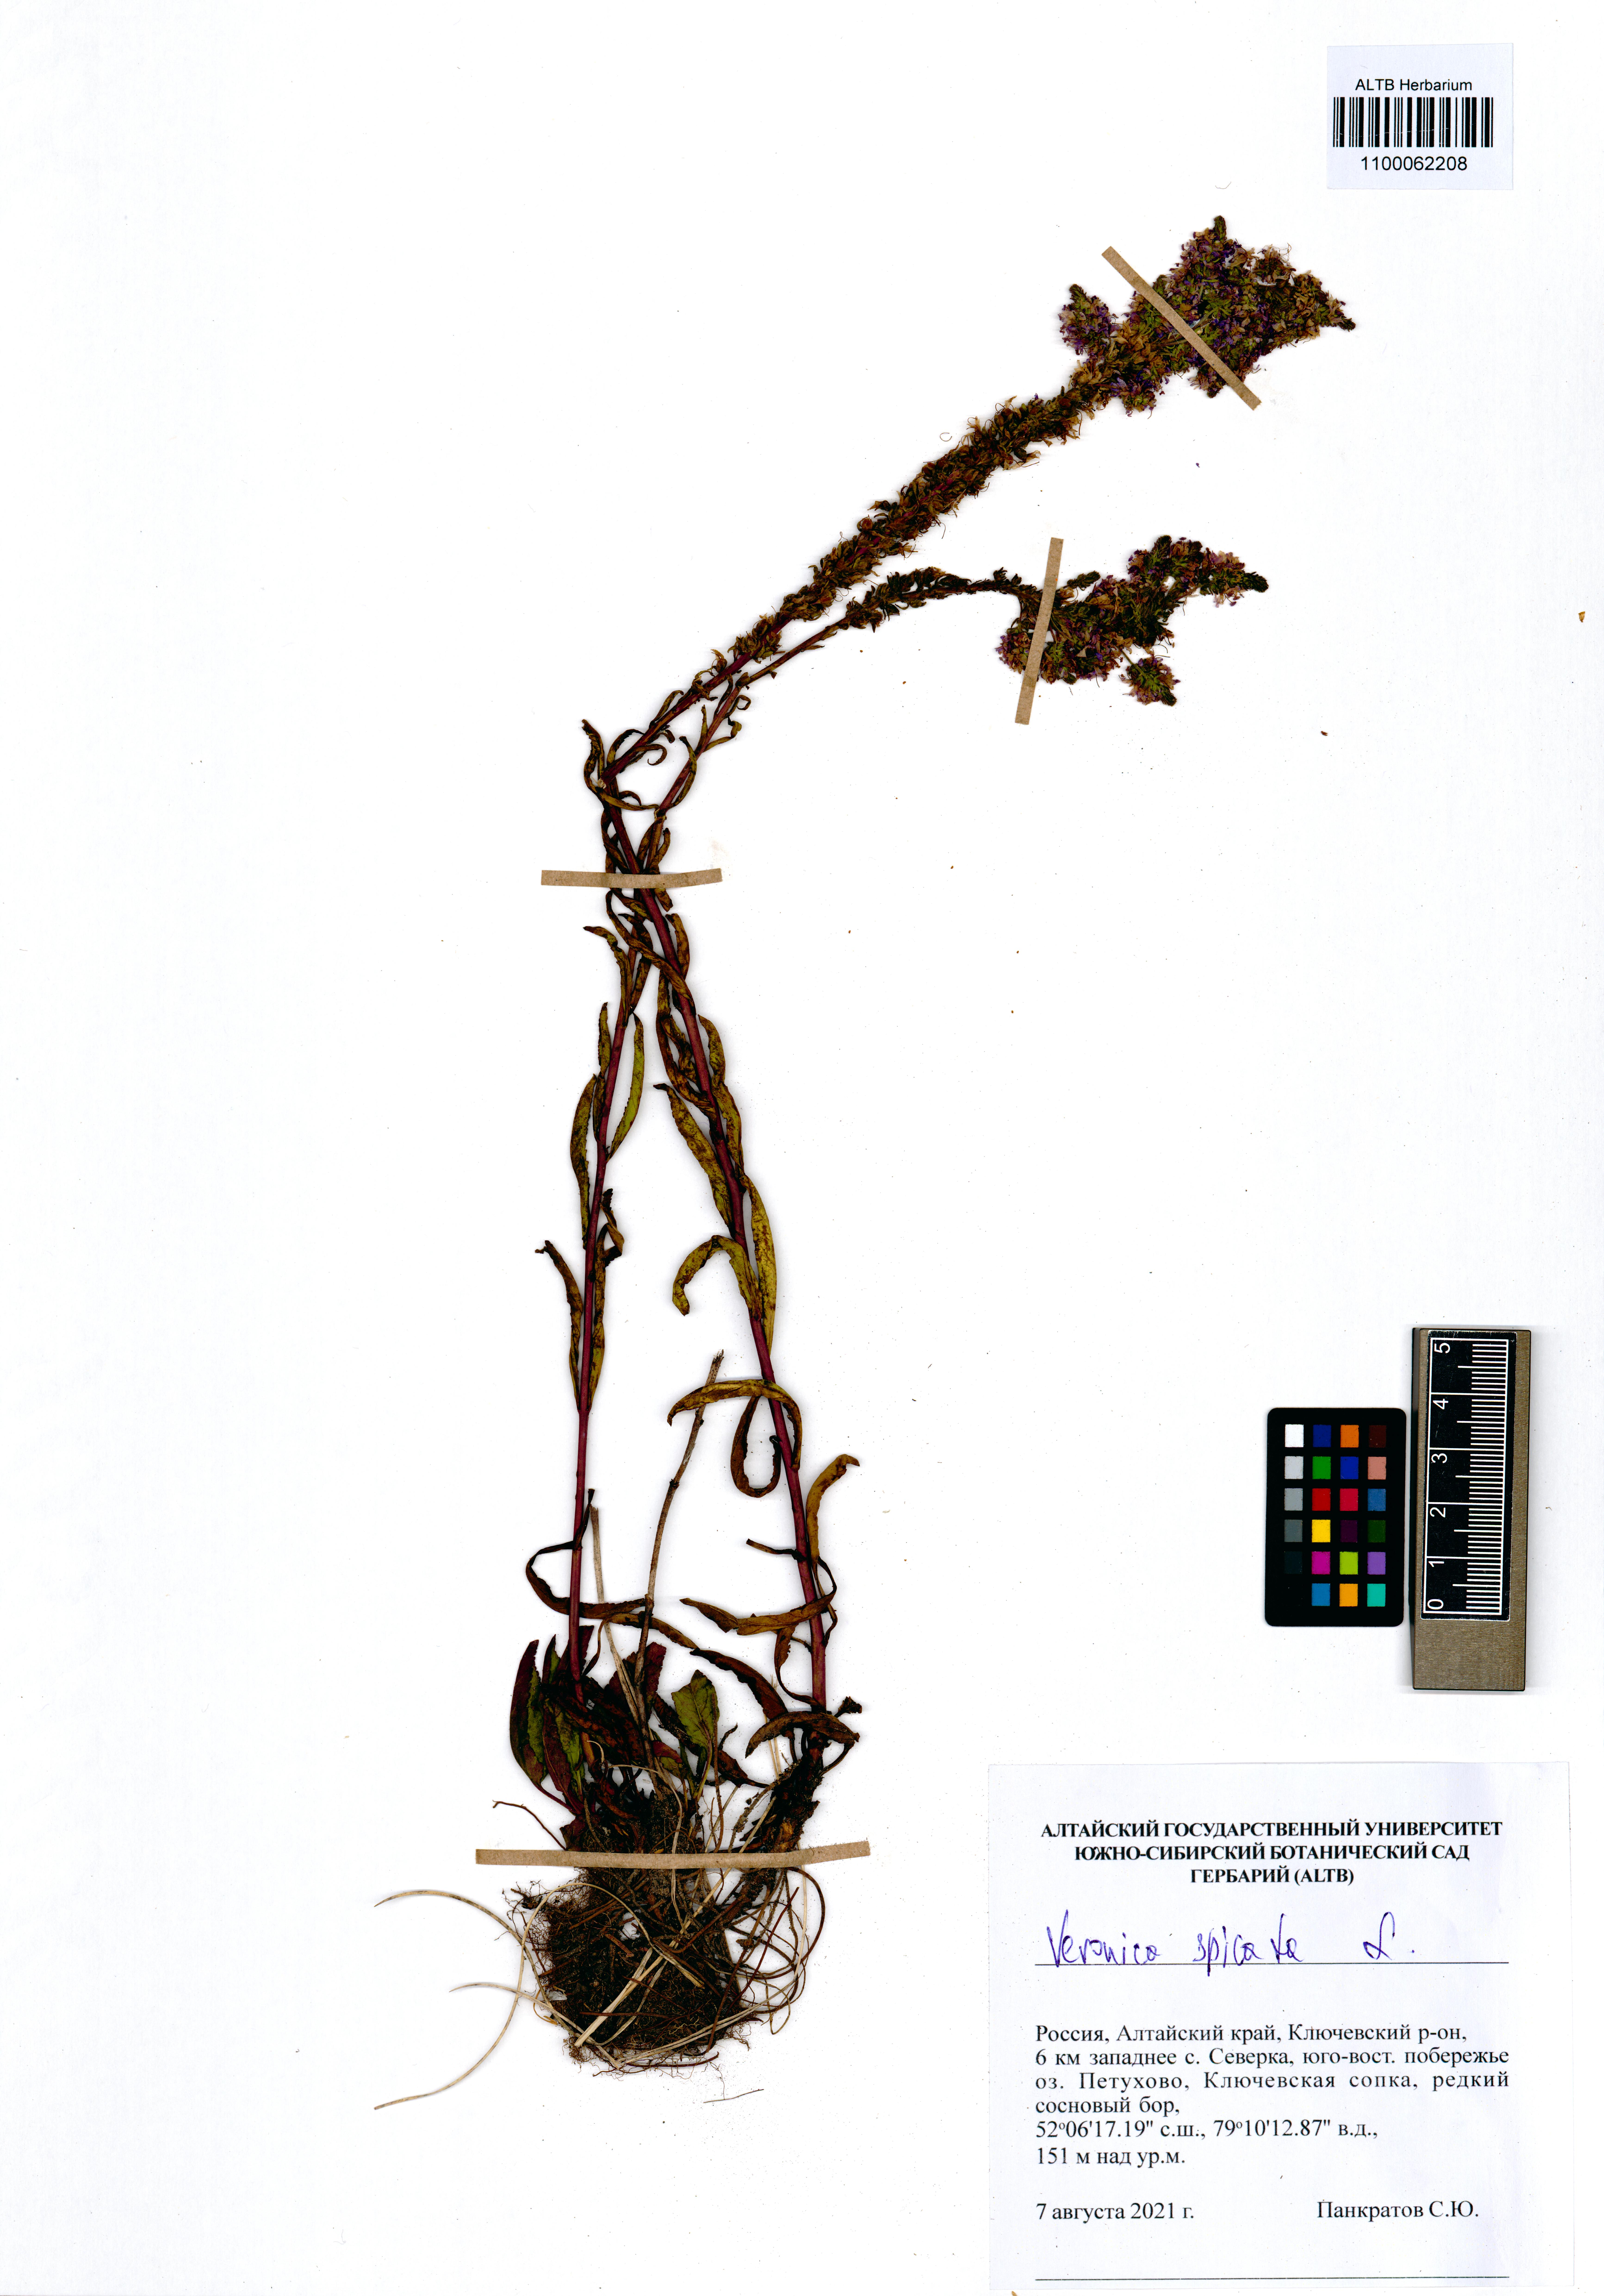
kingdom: Plantae
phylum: Tracheophyta
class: Magnoliopsida
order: Lamiales
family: Plantaginaceae
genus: Veronica
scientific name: Veronica spicata
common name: Spiked speedwell
